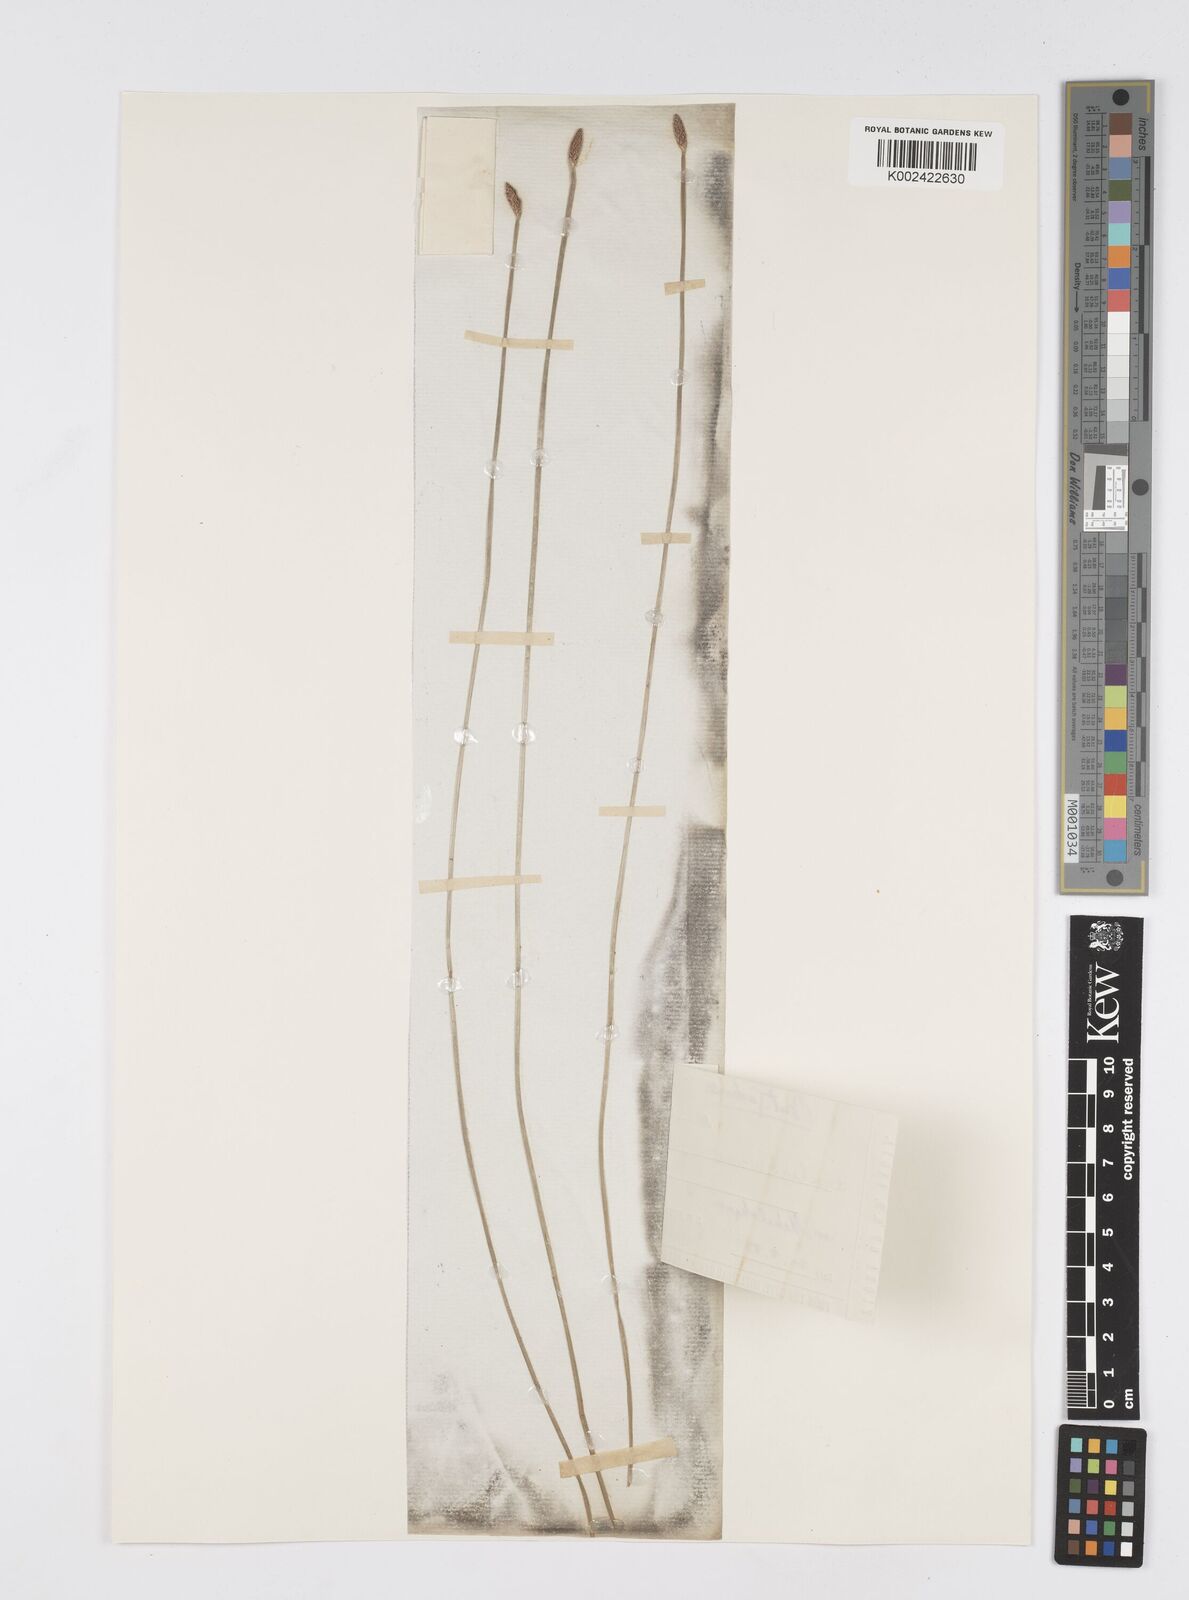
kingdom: Plantae
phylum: Tracheophyta
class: Liliopsida
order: Poales
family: Cyperaceae
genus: Eleocharis
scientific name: Eleocharis tetraquetra
